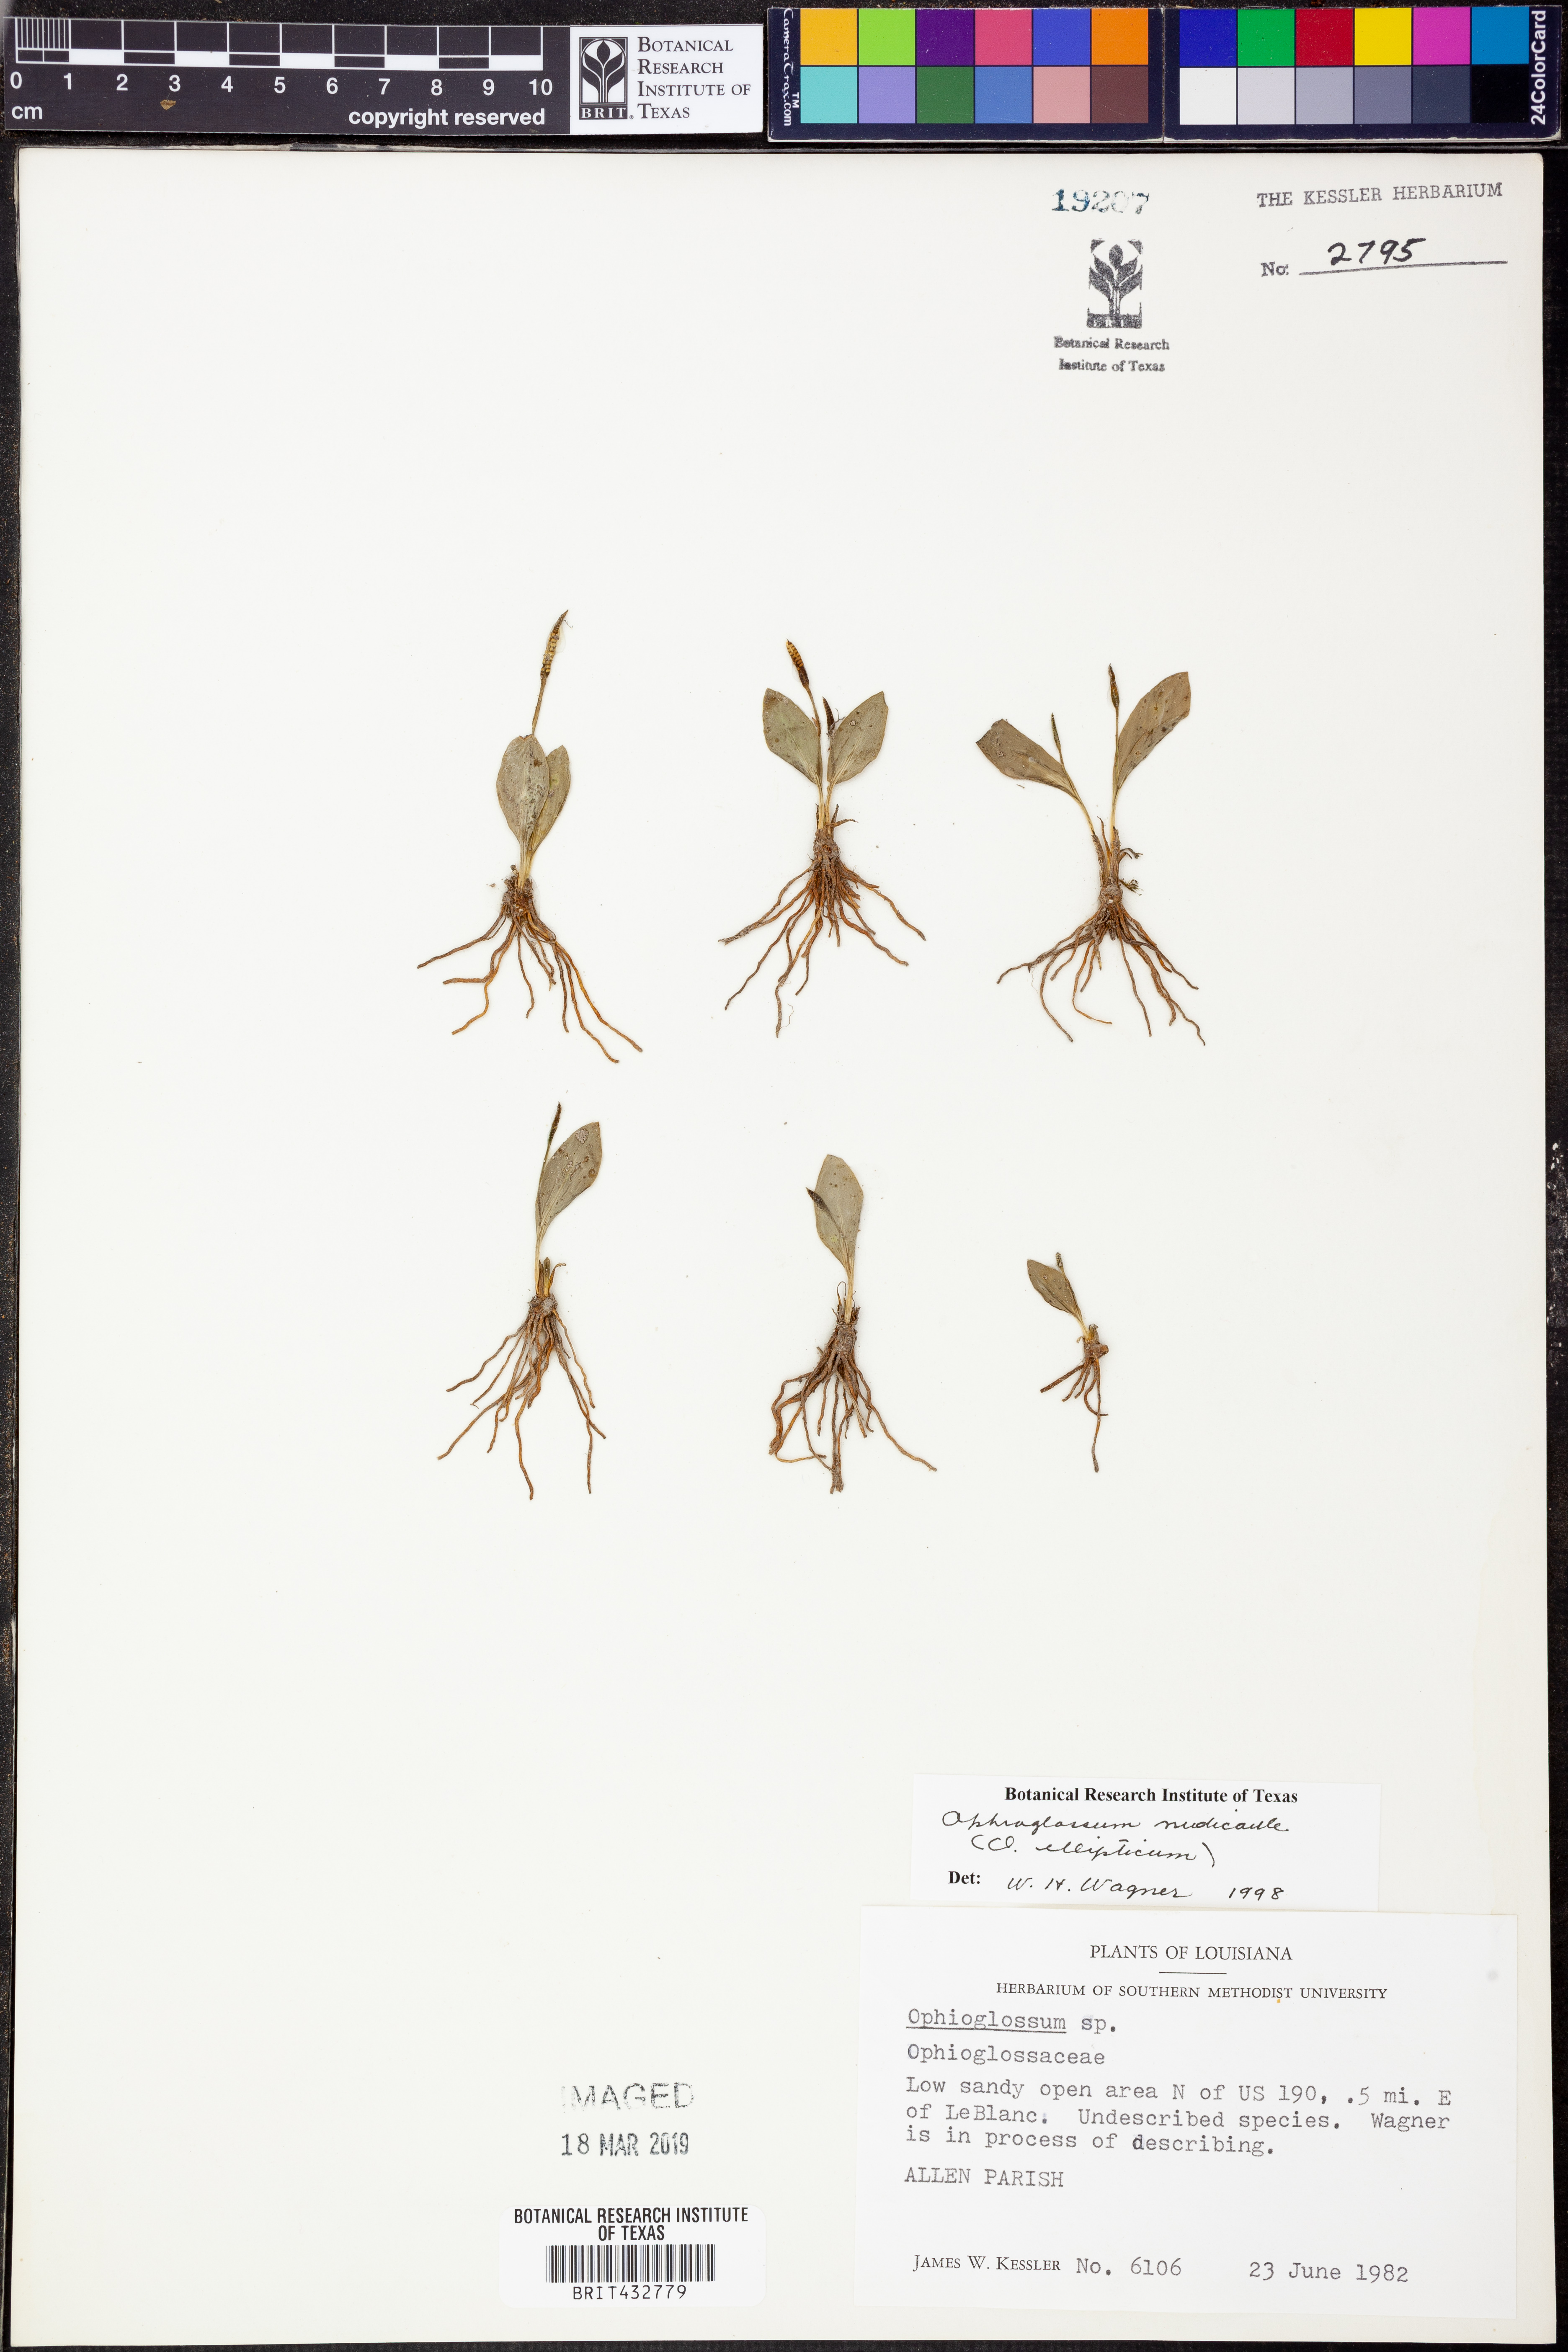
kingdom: Plantae
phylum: Tracheophyta
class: Polypodiopsida
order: Ophioglossales
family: Ophioglossaceae
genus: Ophioglossum
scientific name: Ophioglossum nudicaule
